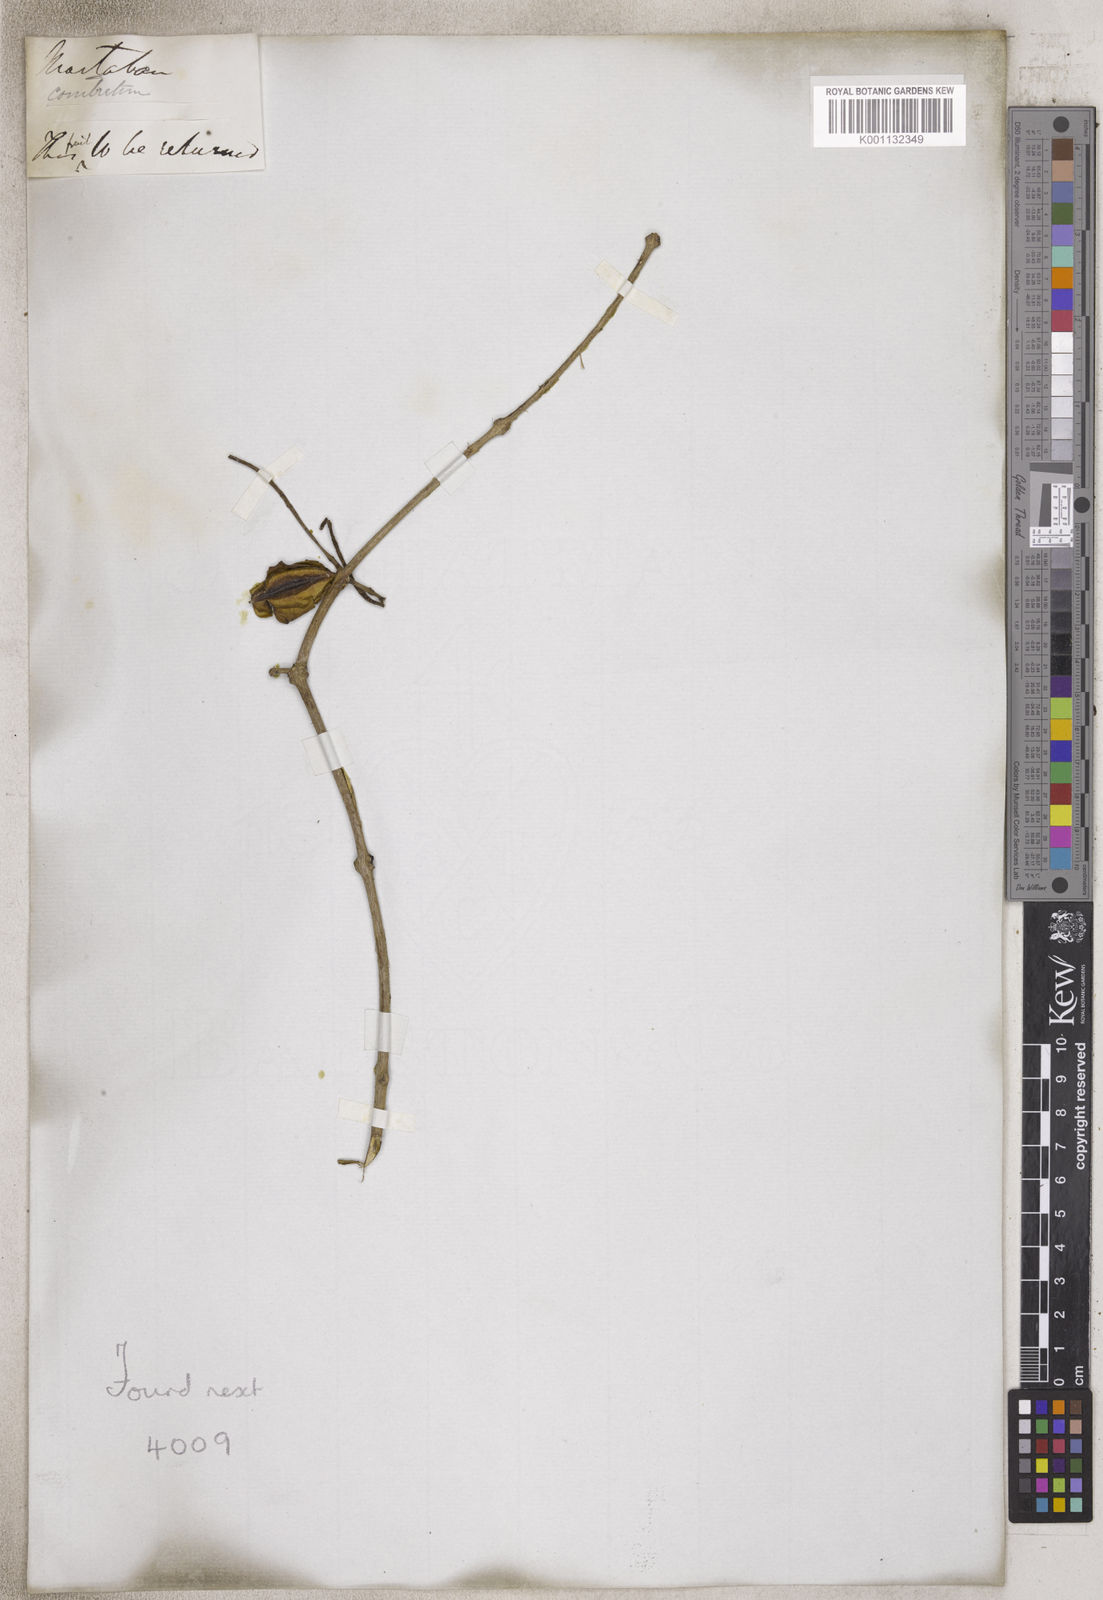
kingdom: Plantae
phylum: Tracheophyta
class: Magnoliopsida
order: Myrtales
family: Combretaceae
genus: Combretum
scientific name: Combretum
